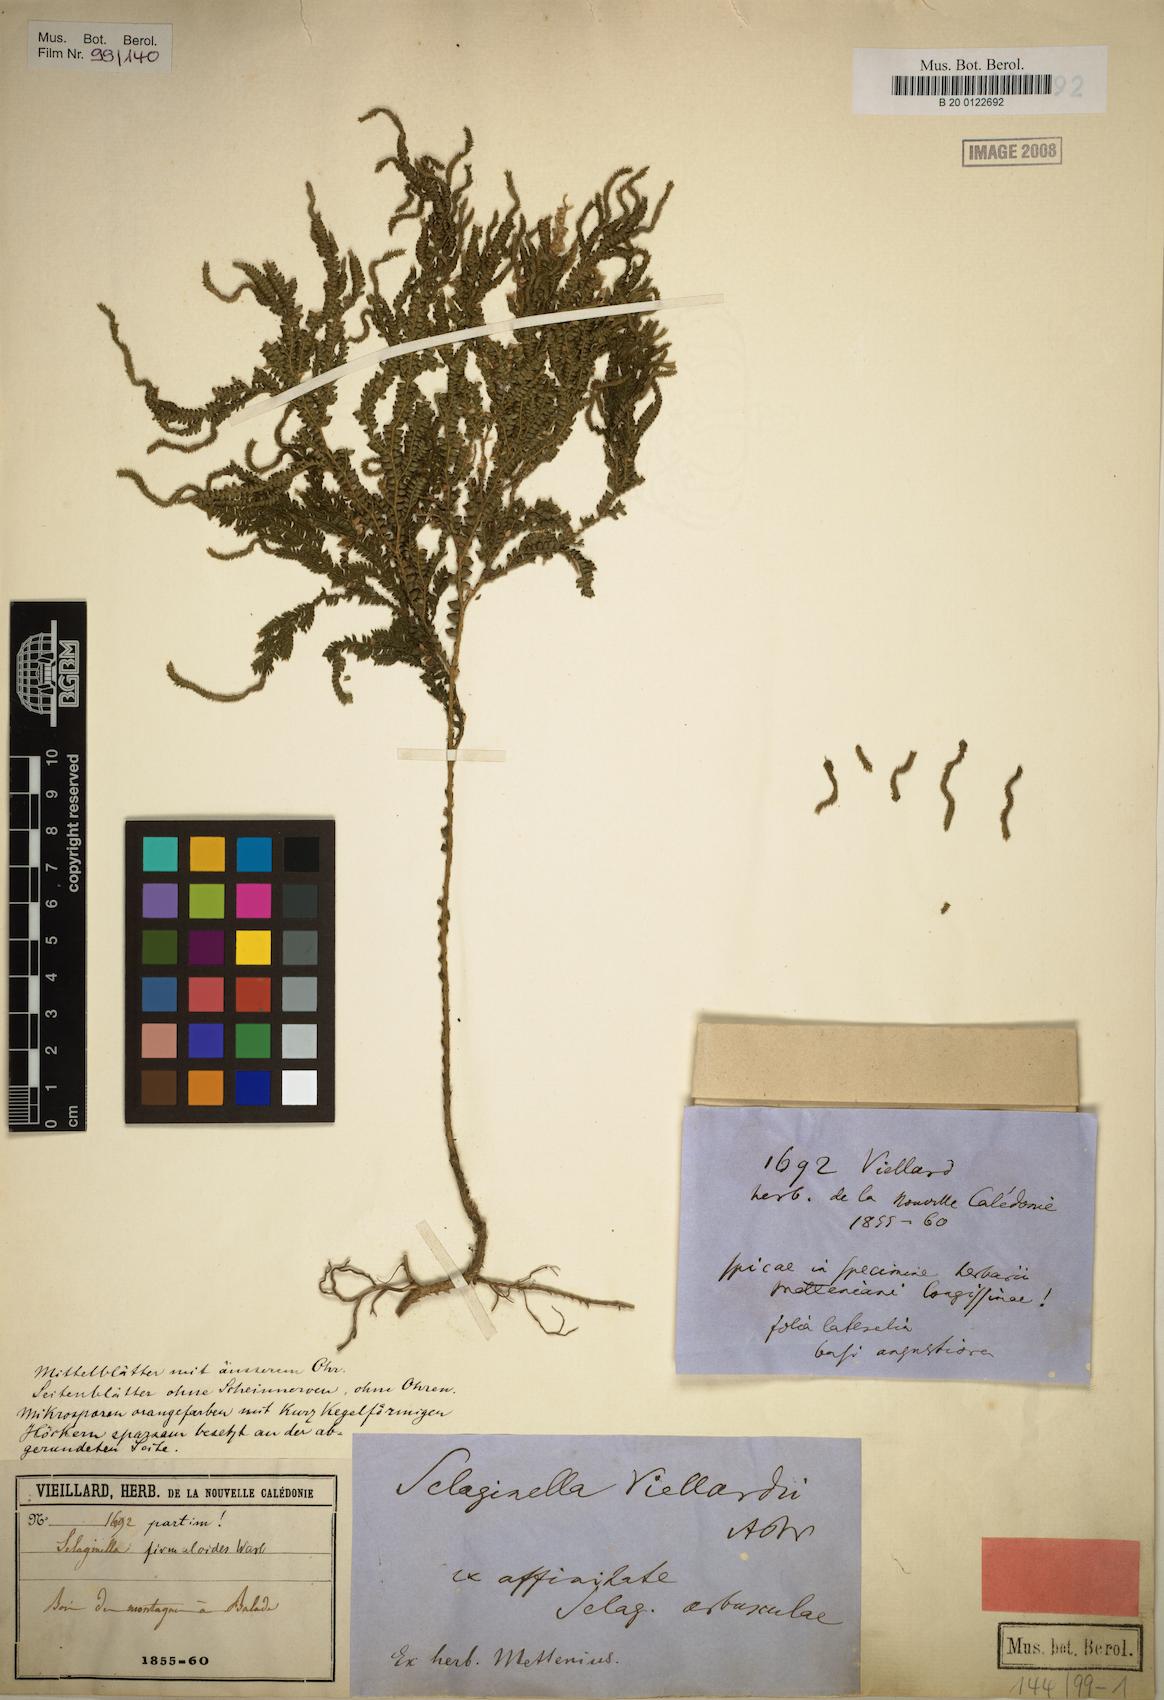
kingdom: Plantae
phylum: Tracheophyta
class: Lycopodiopsida
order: Selaginellales
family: Selaginellaceae
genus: Selaginella
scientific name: Selaginella firmuloides
